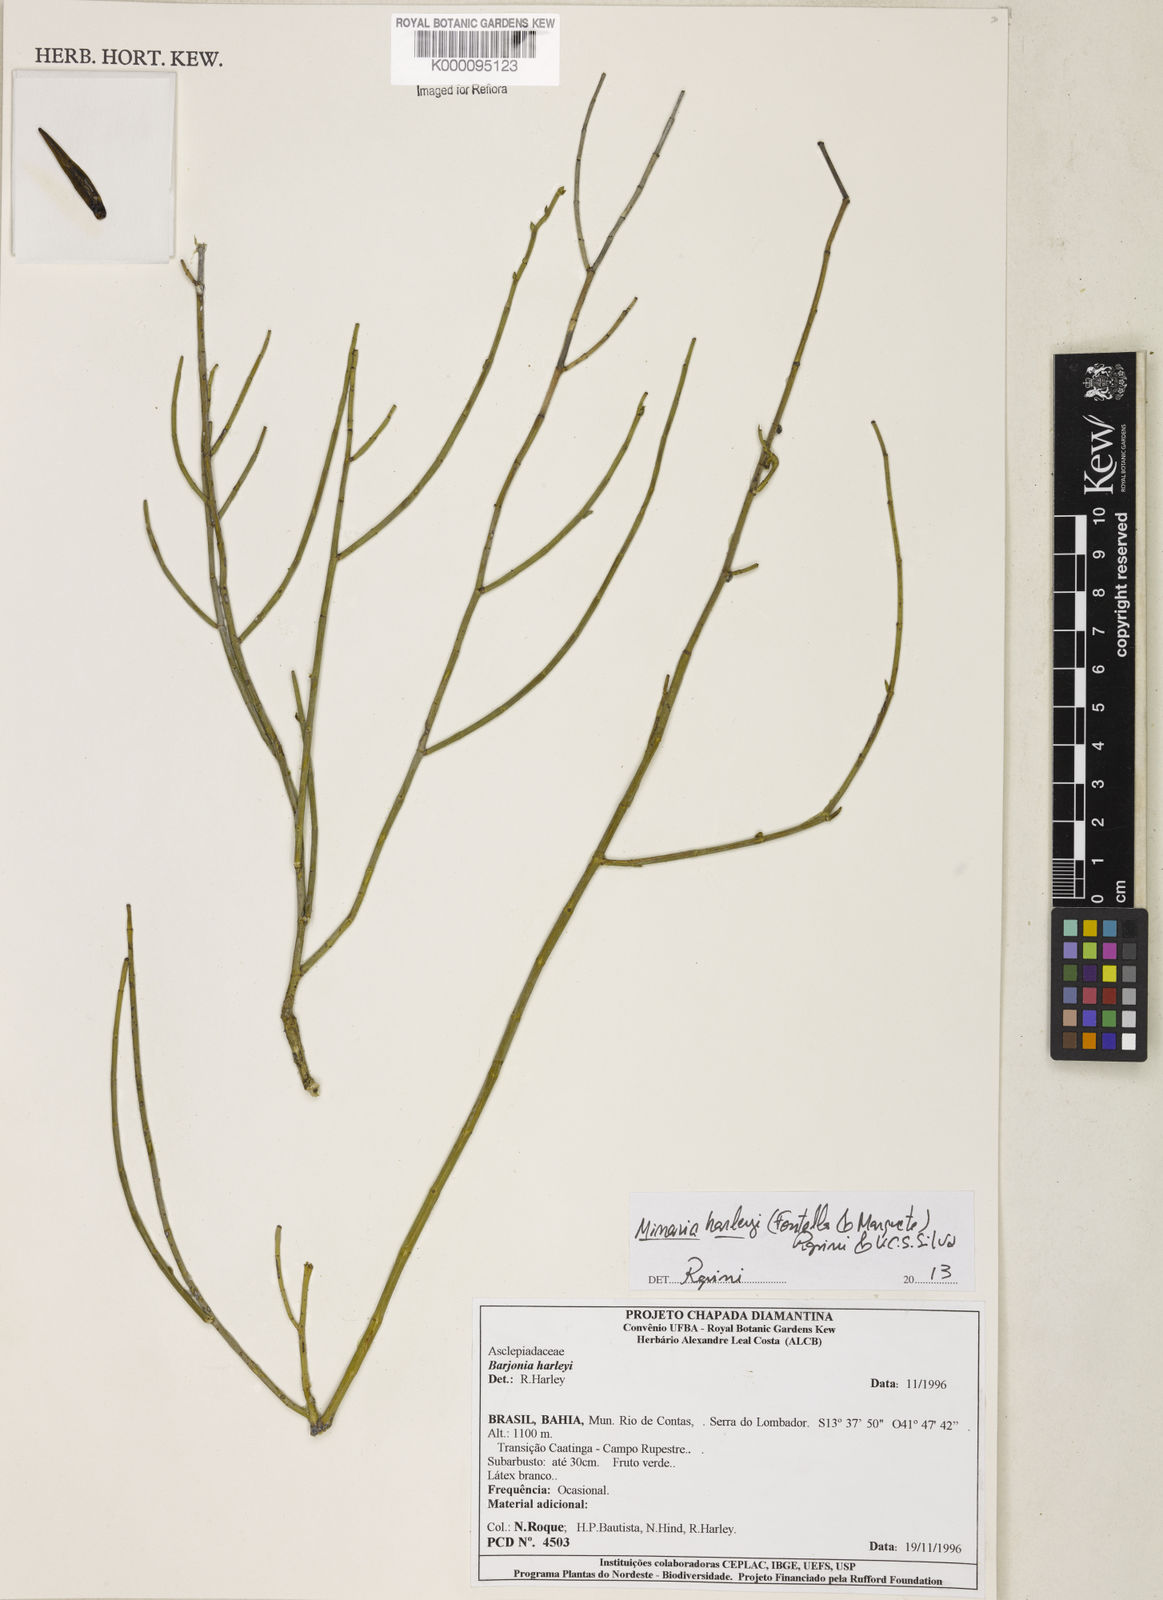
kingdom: Plantae
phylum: Tracheophyta
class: Magnoliopsida
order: Gentianales
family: Apocynaceae
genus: Minaria
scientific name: Minaria cordata
